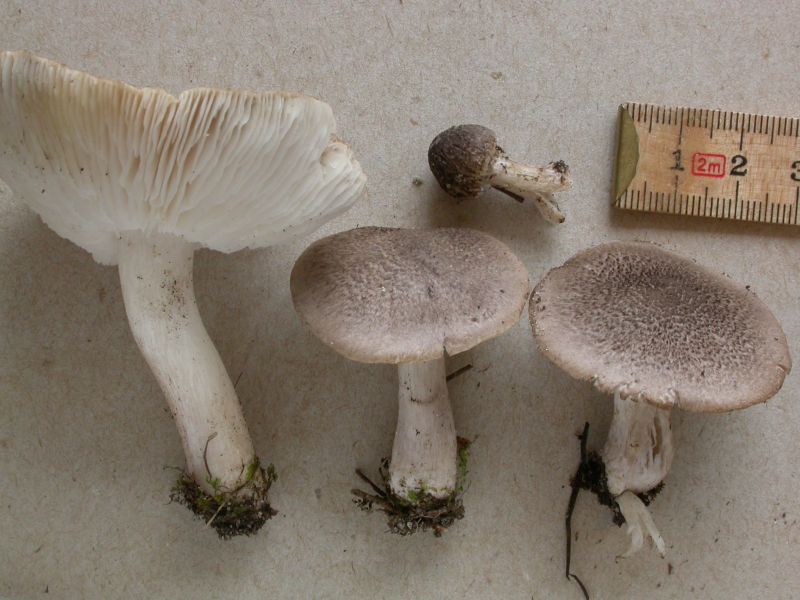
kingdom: Fungi
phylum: Basidiomycota
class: Agaricomycetes
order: Agaricales
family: Tricholomataceae
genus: Tricholoma
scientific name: Tricholoma scalpturatum
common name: gulplettet ridderhat
